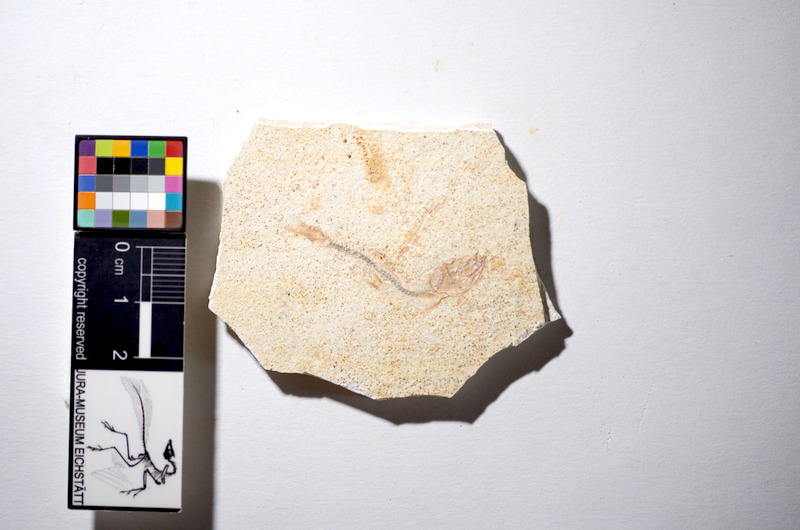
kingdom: Animalia
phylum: Chordata
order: Salmoniformes
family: Orthogonikleithridae
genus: Orthogonikleithrus
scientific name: Orthogonikleithrus hoelli
